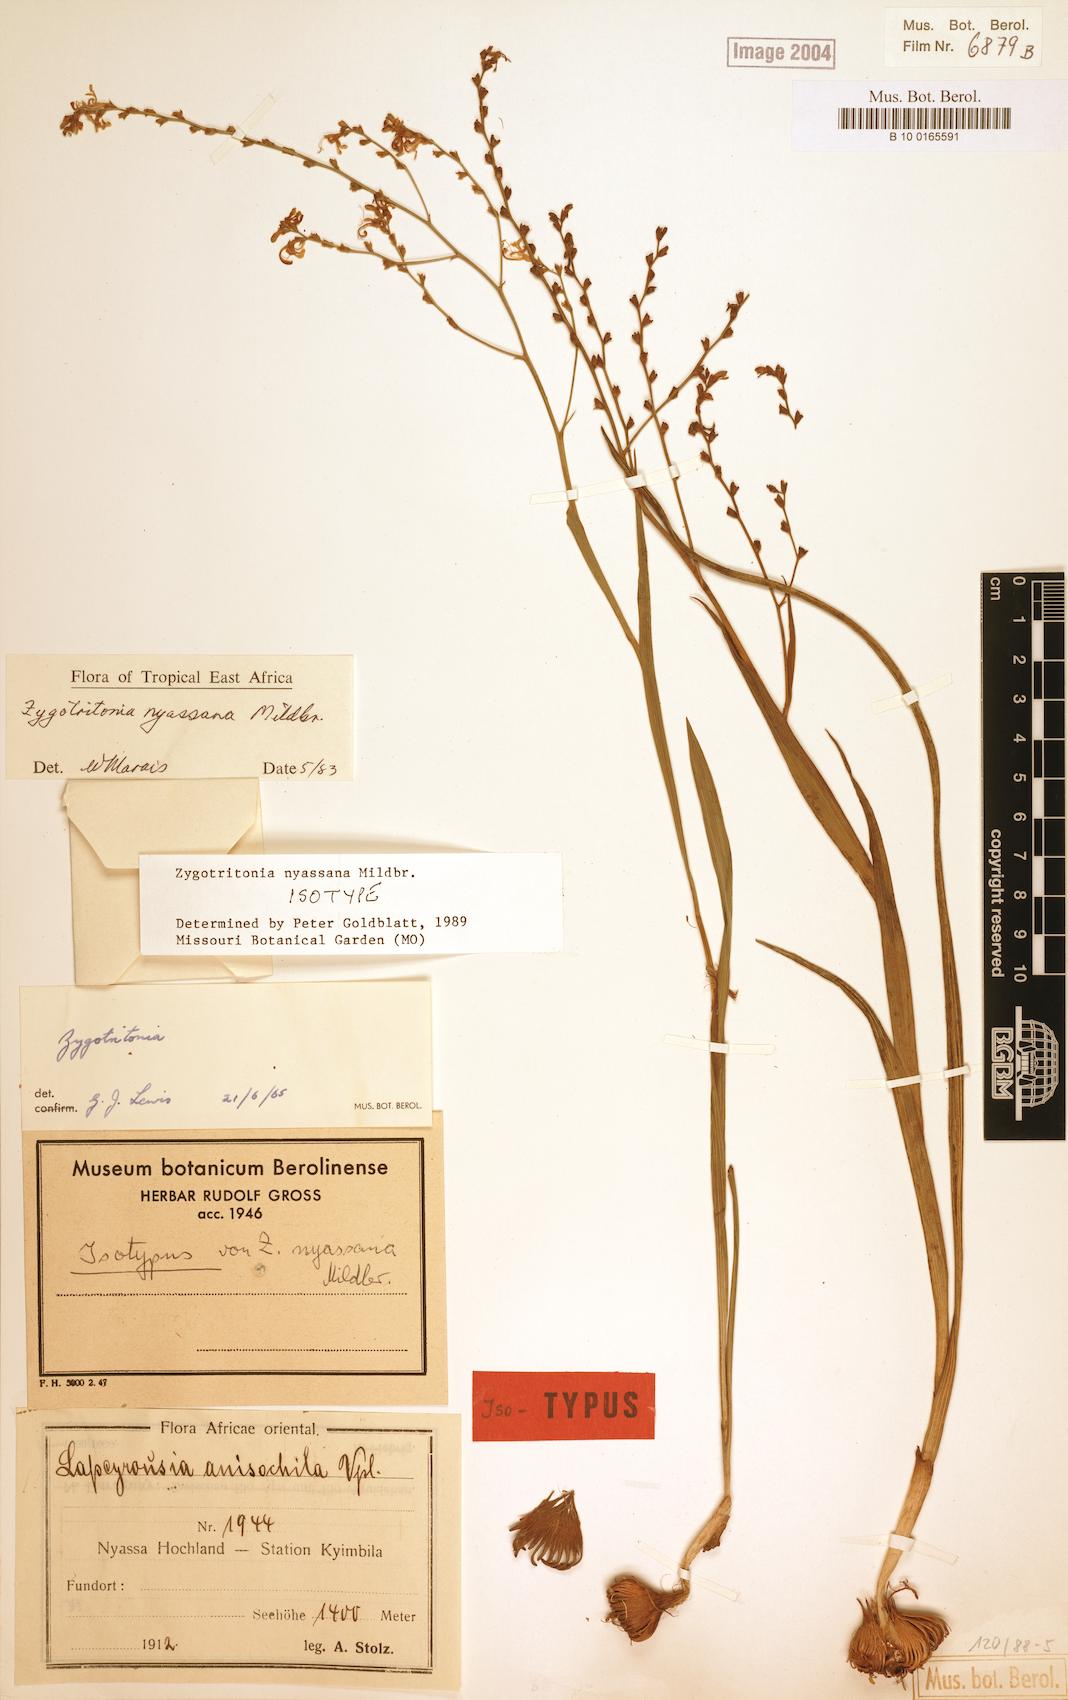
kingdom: Plantae
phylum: Tracheophyta
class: Liliopsida
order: Asparagales
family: Iridaceae
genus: Zygotritonia
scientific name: Zygotritonia nyassana
